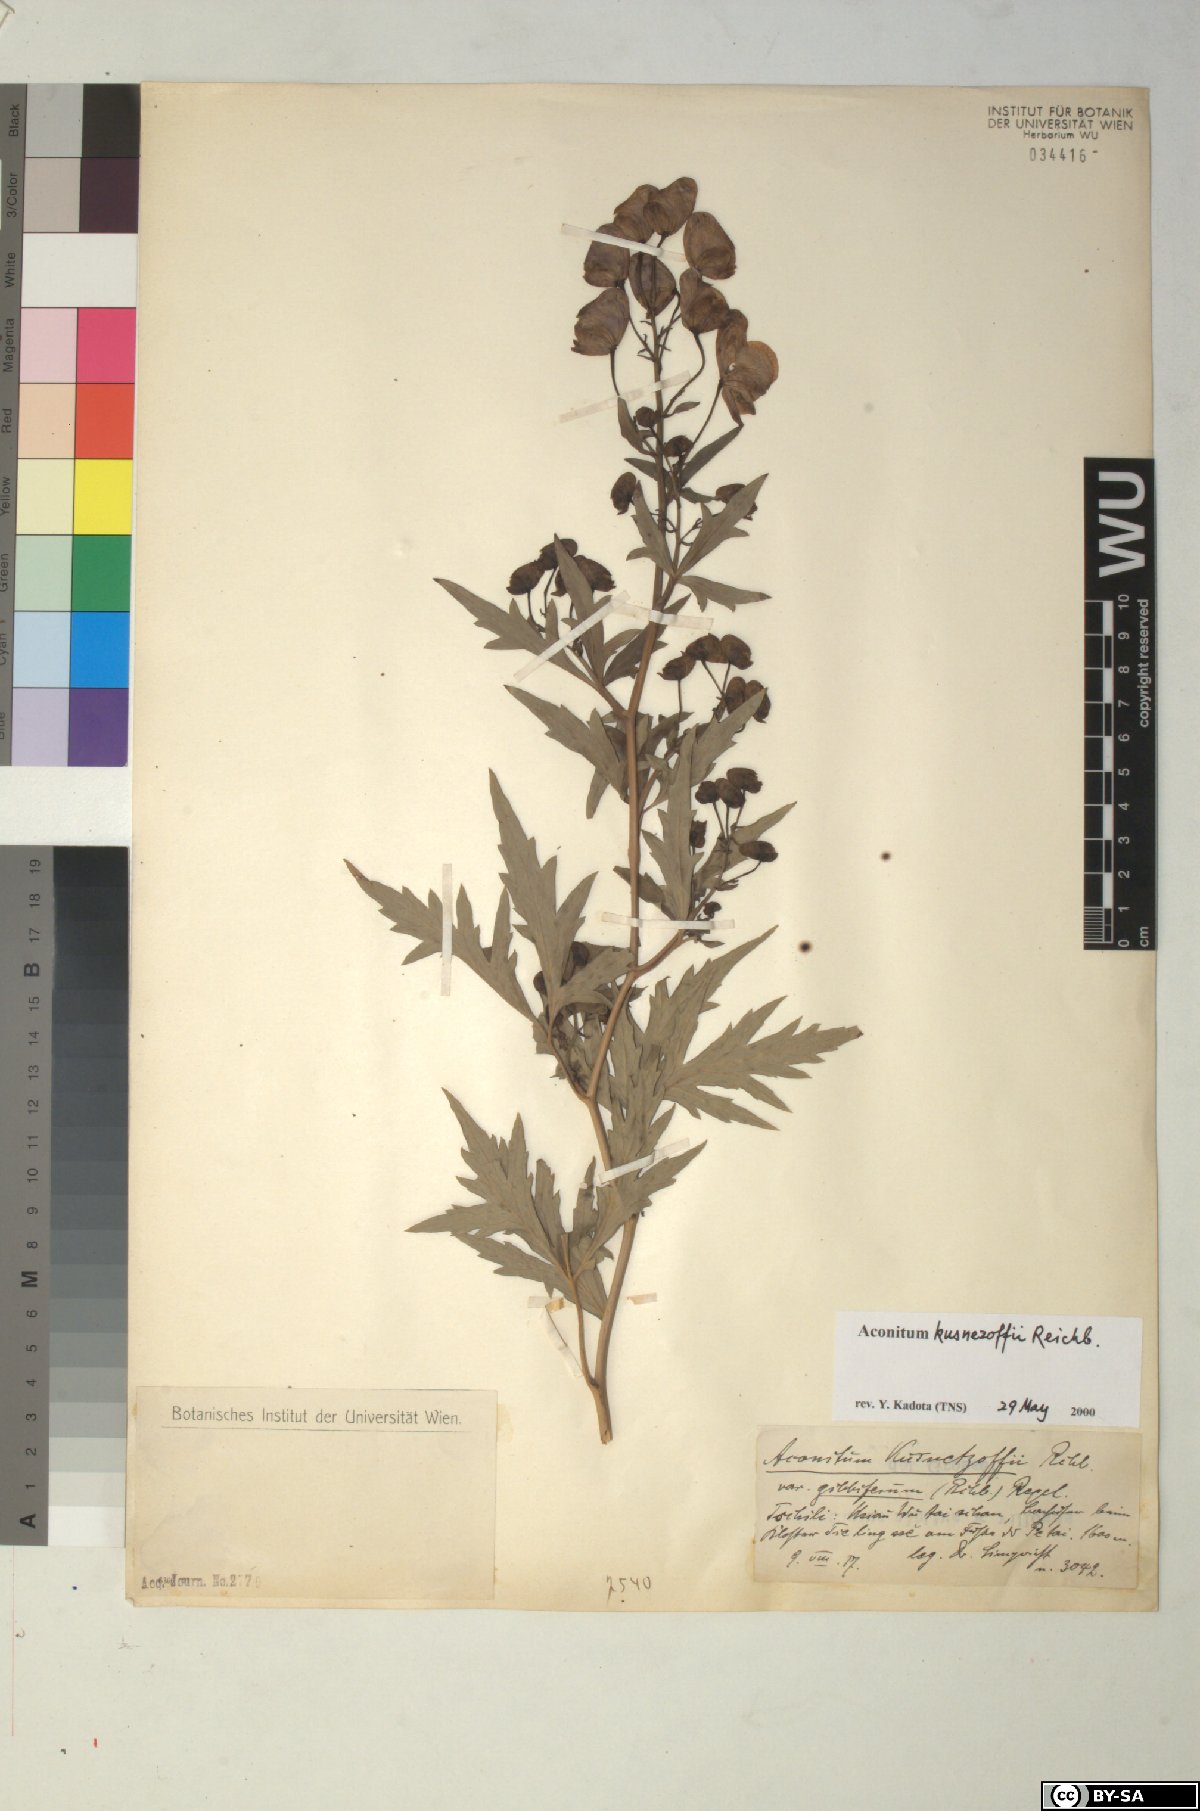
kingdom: Plantae
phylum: Tracheophyta
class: Magnoliopsida
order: Ranunculales
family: Ranunculaceae
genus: Aconitum
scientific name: Aconitum kusnezoffii
